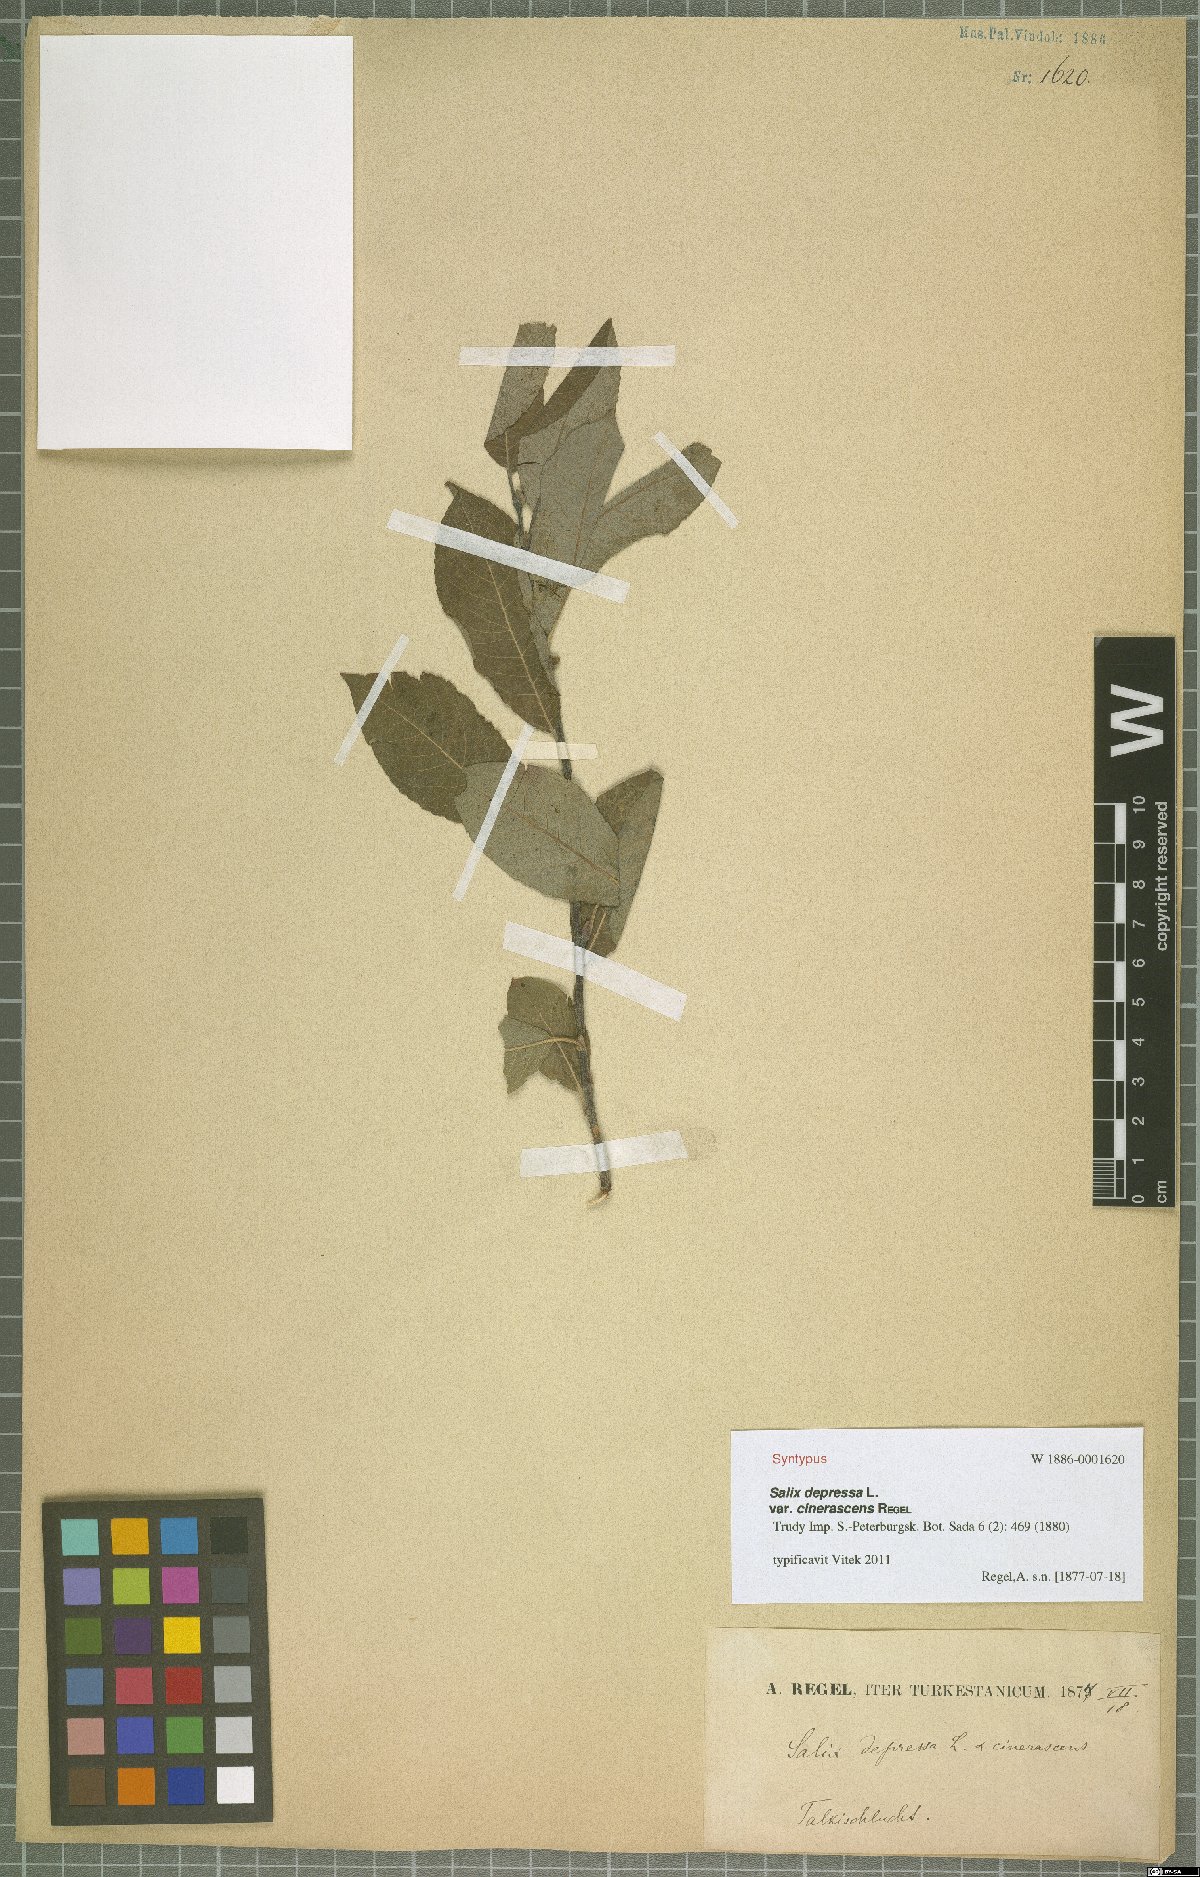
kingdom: Plantae
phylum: Tracheophyta
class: Magnoliopsida
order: Malpighiales
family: Salicaceae
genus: Salix
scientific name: Salix bebbiana
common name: Bebb's willow
